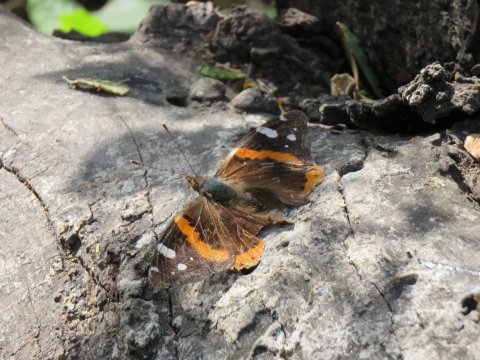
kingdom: Animalia
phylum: Arthropoda
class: Insecta
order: Lepidoptera
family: Nymphalidae
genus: Vanessa
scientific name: Vanessa atalanta
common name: Red Admiral
